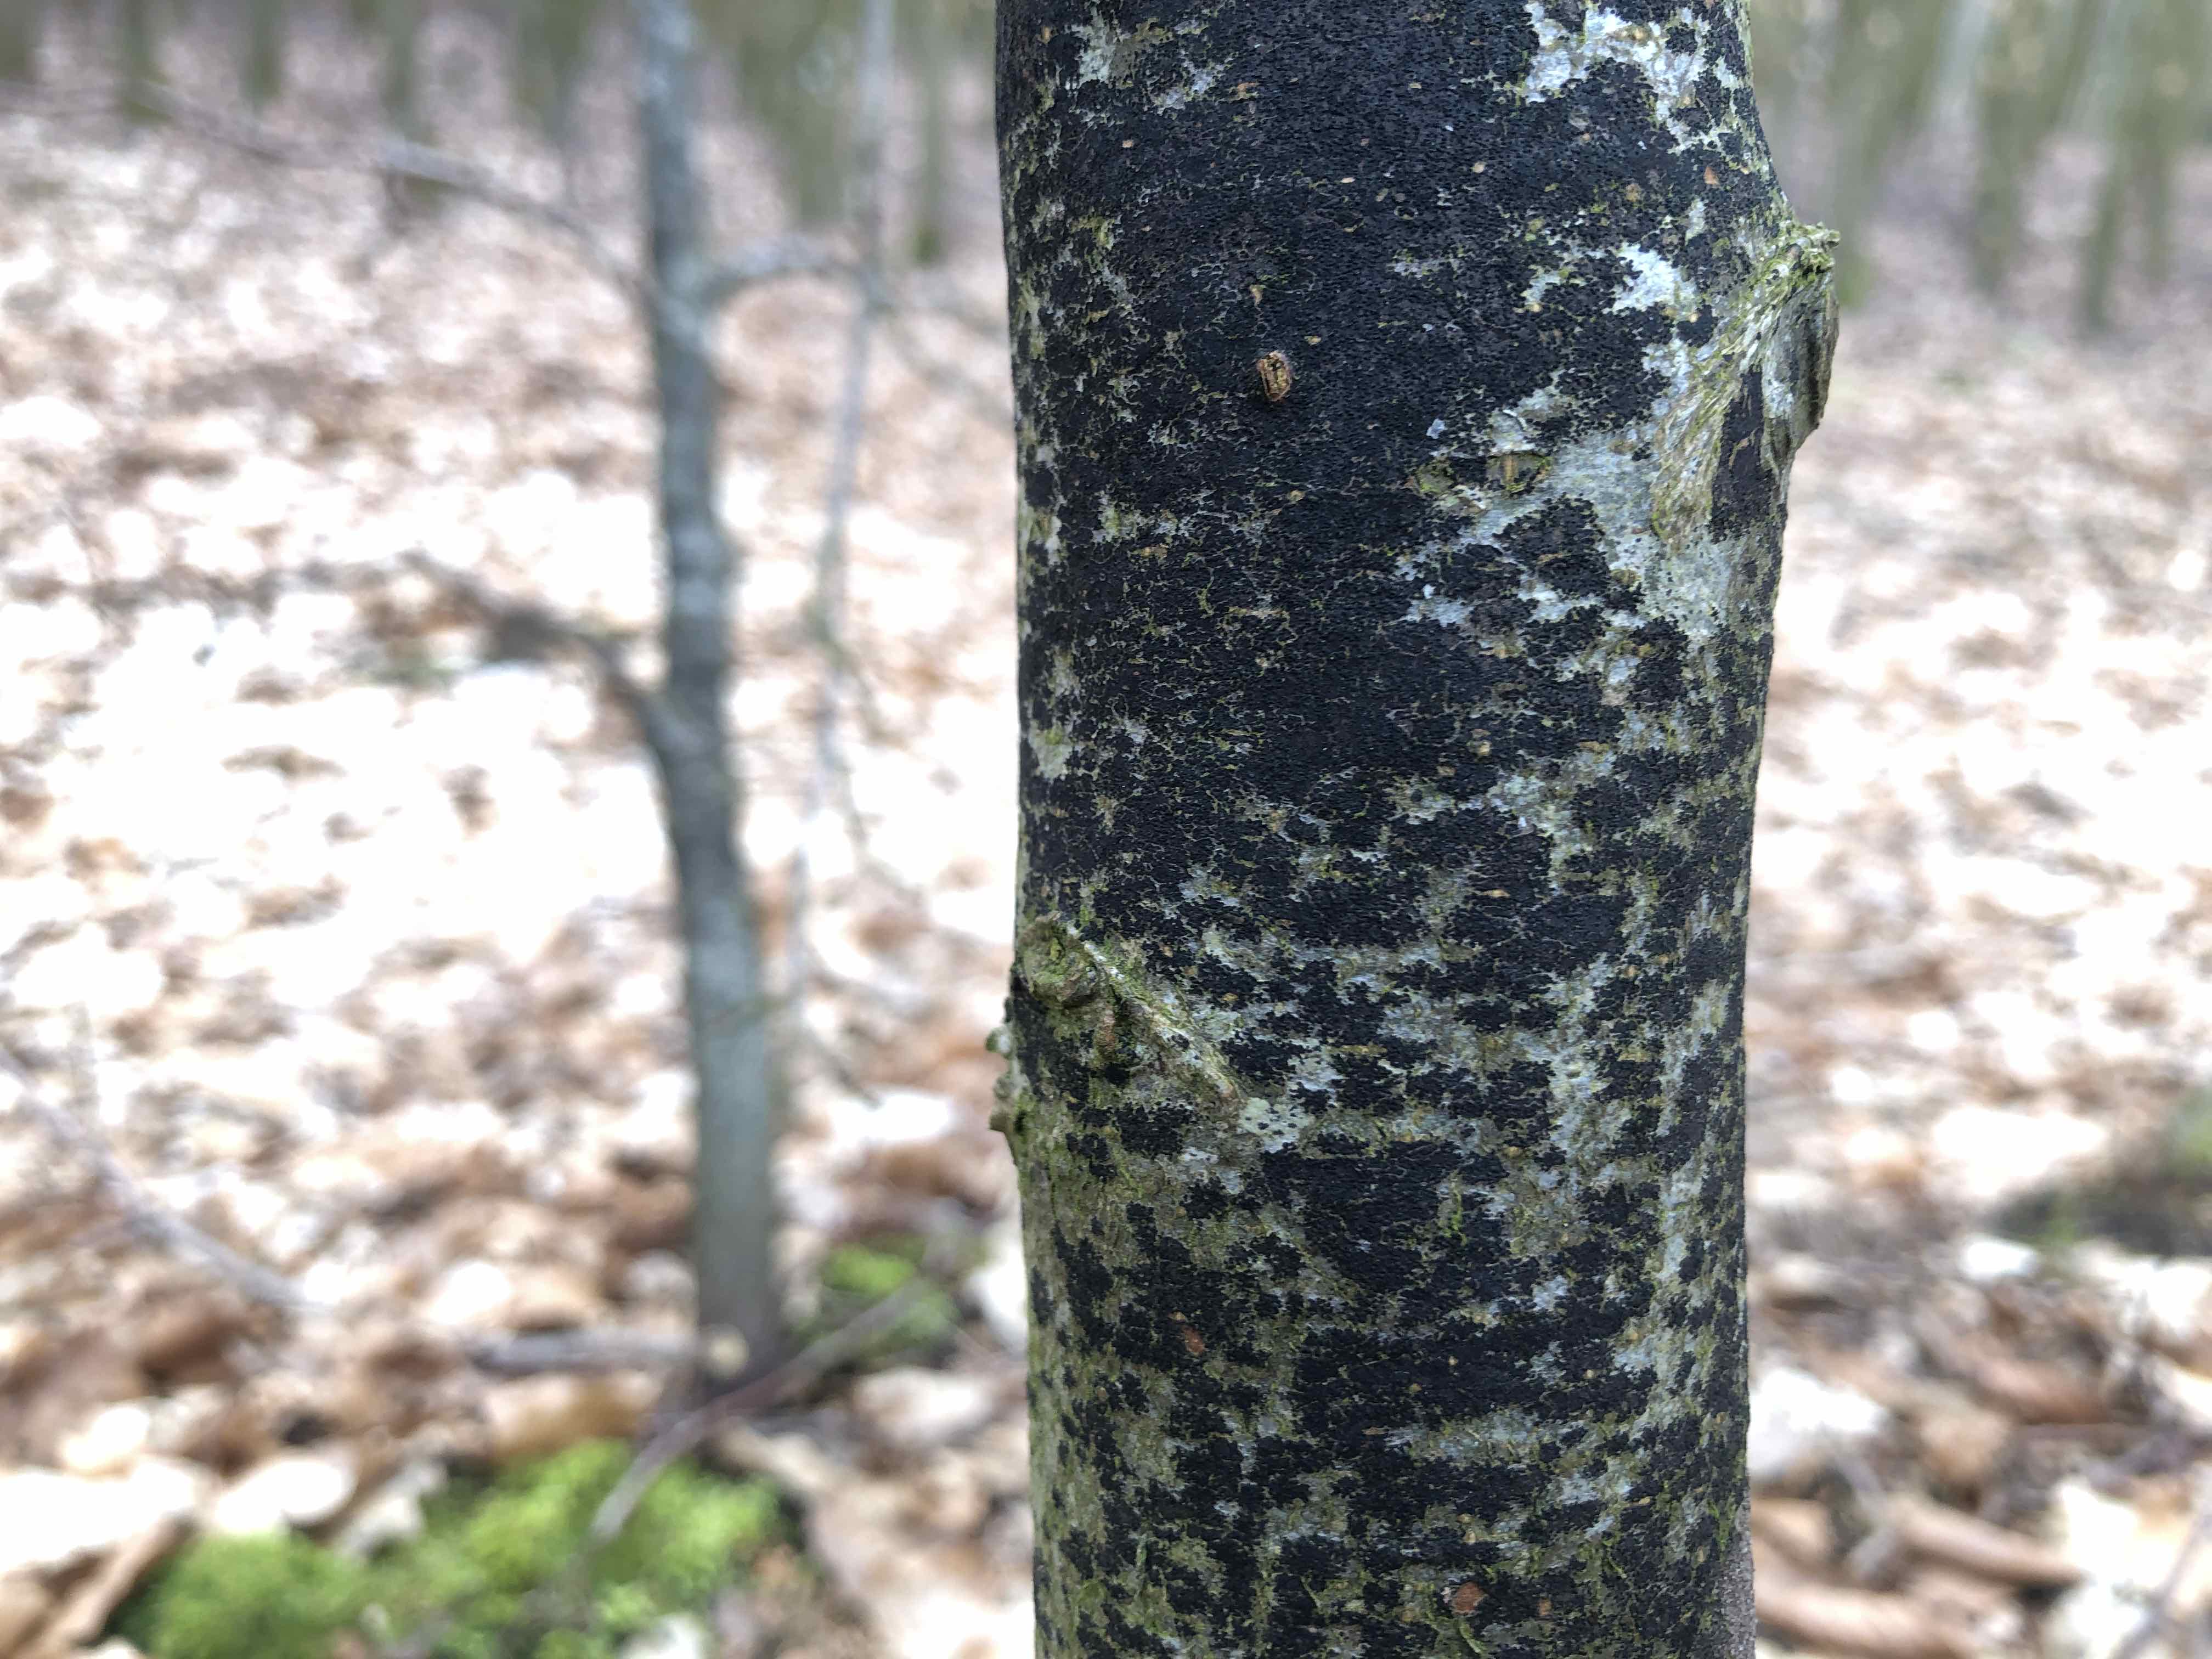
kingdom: Fungi
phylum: Ascomycota
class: Leotiomycetes
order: Rhytismatales
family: Ascodichaenaceae
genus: Ascodichaena
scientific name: Ascodichaena rugosa
